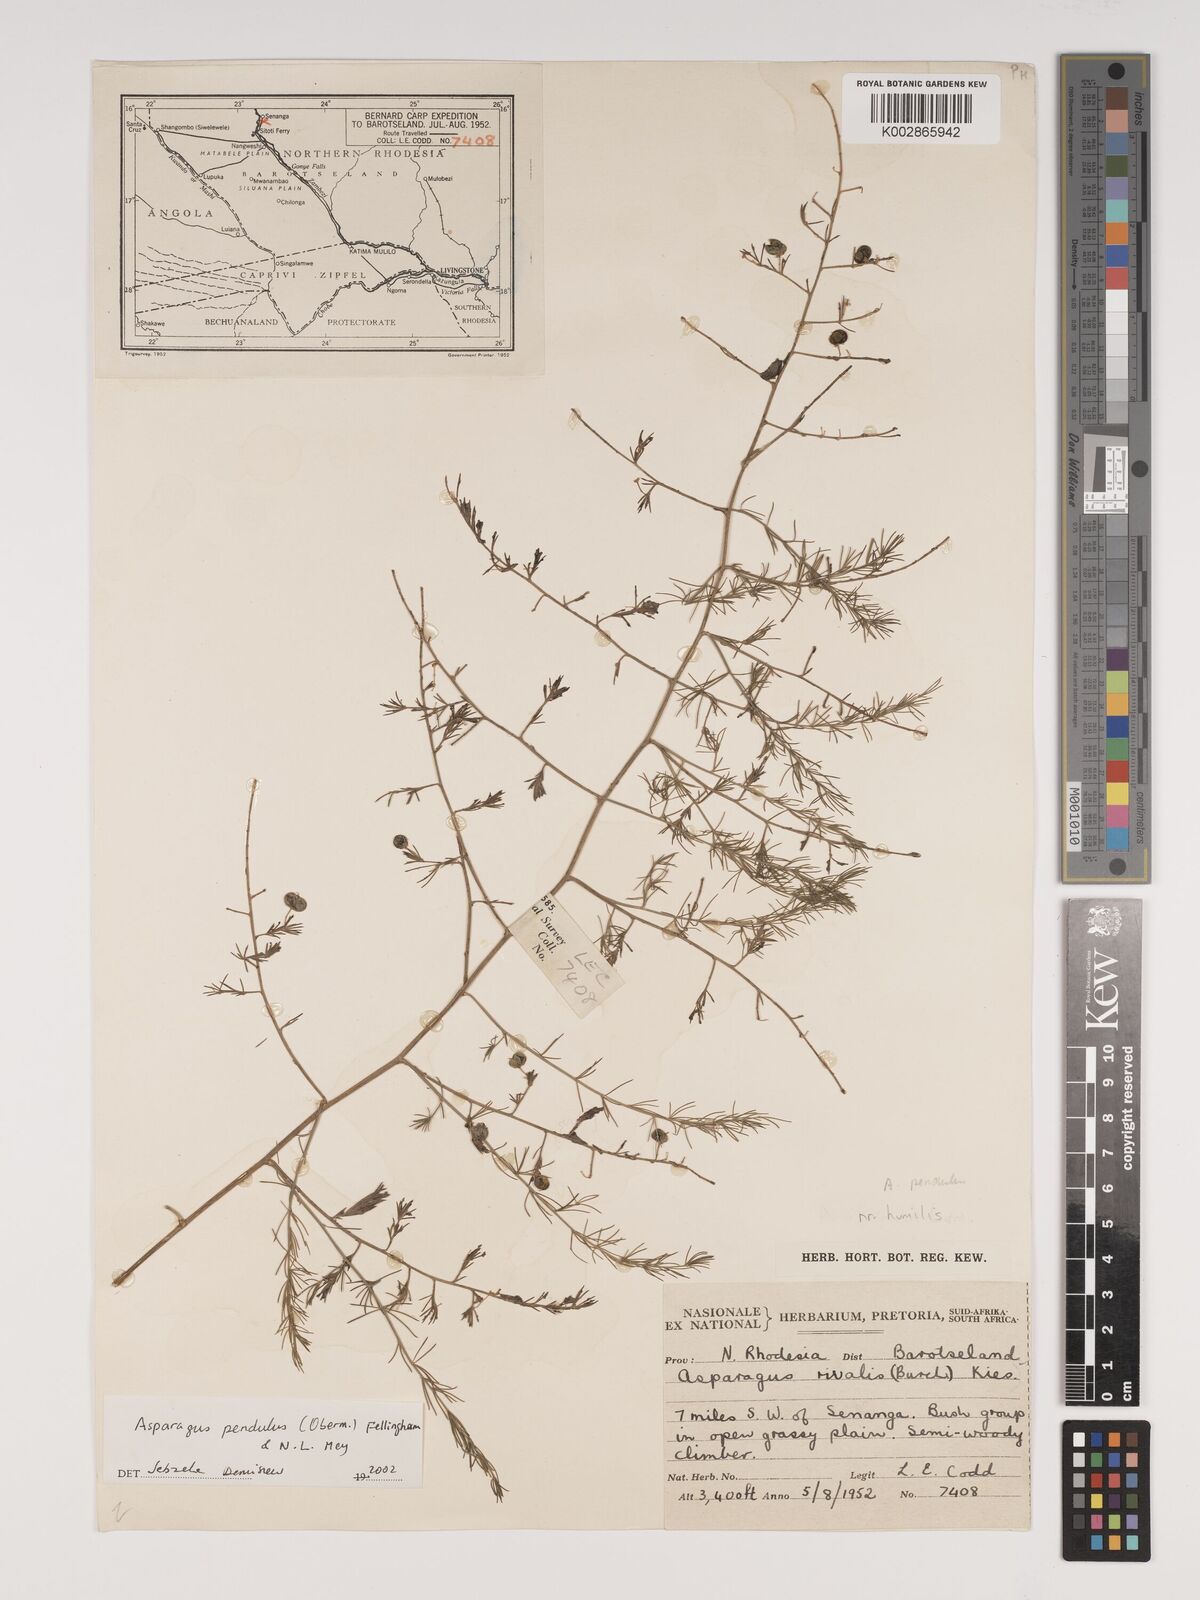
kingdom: Plantae
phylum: Tracheophyta
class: Liliopsida
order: Asparagales
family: Asparagaceae
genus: Asparagus
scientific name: Asparagus pendulus
